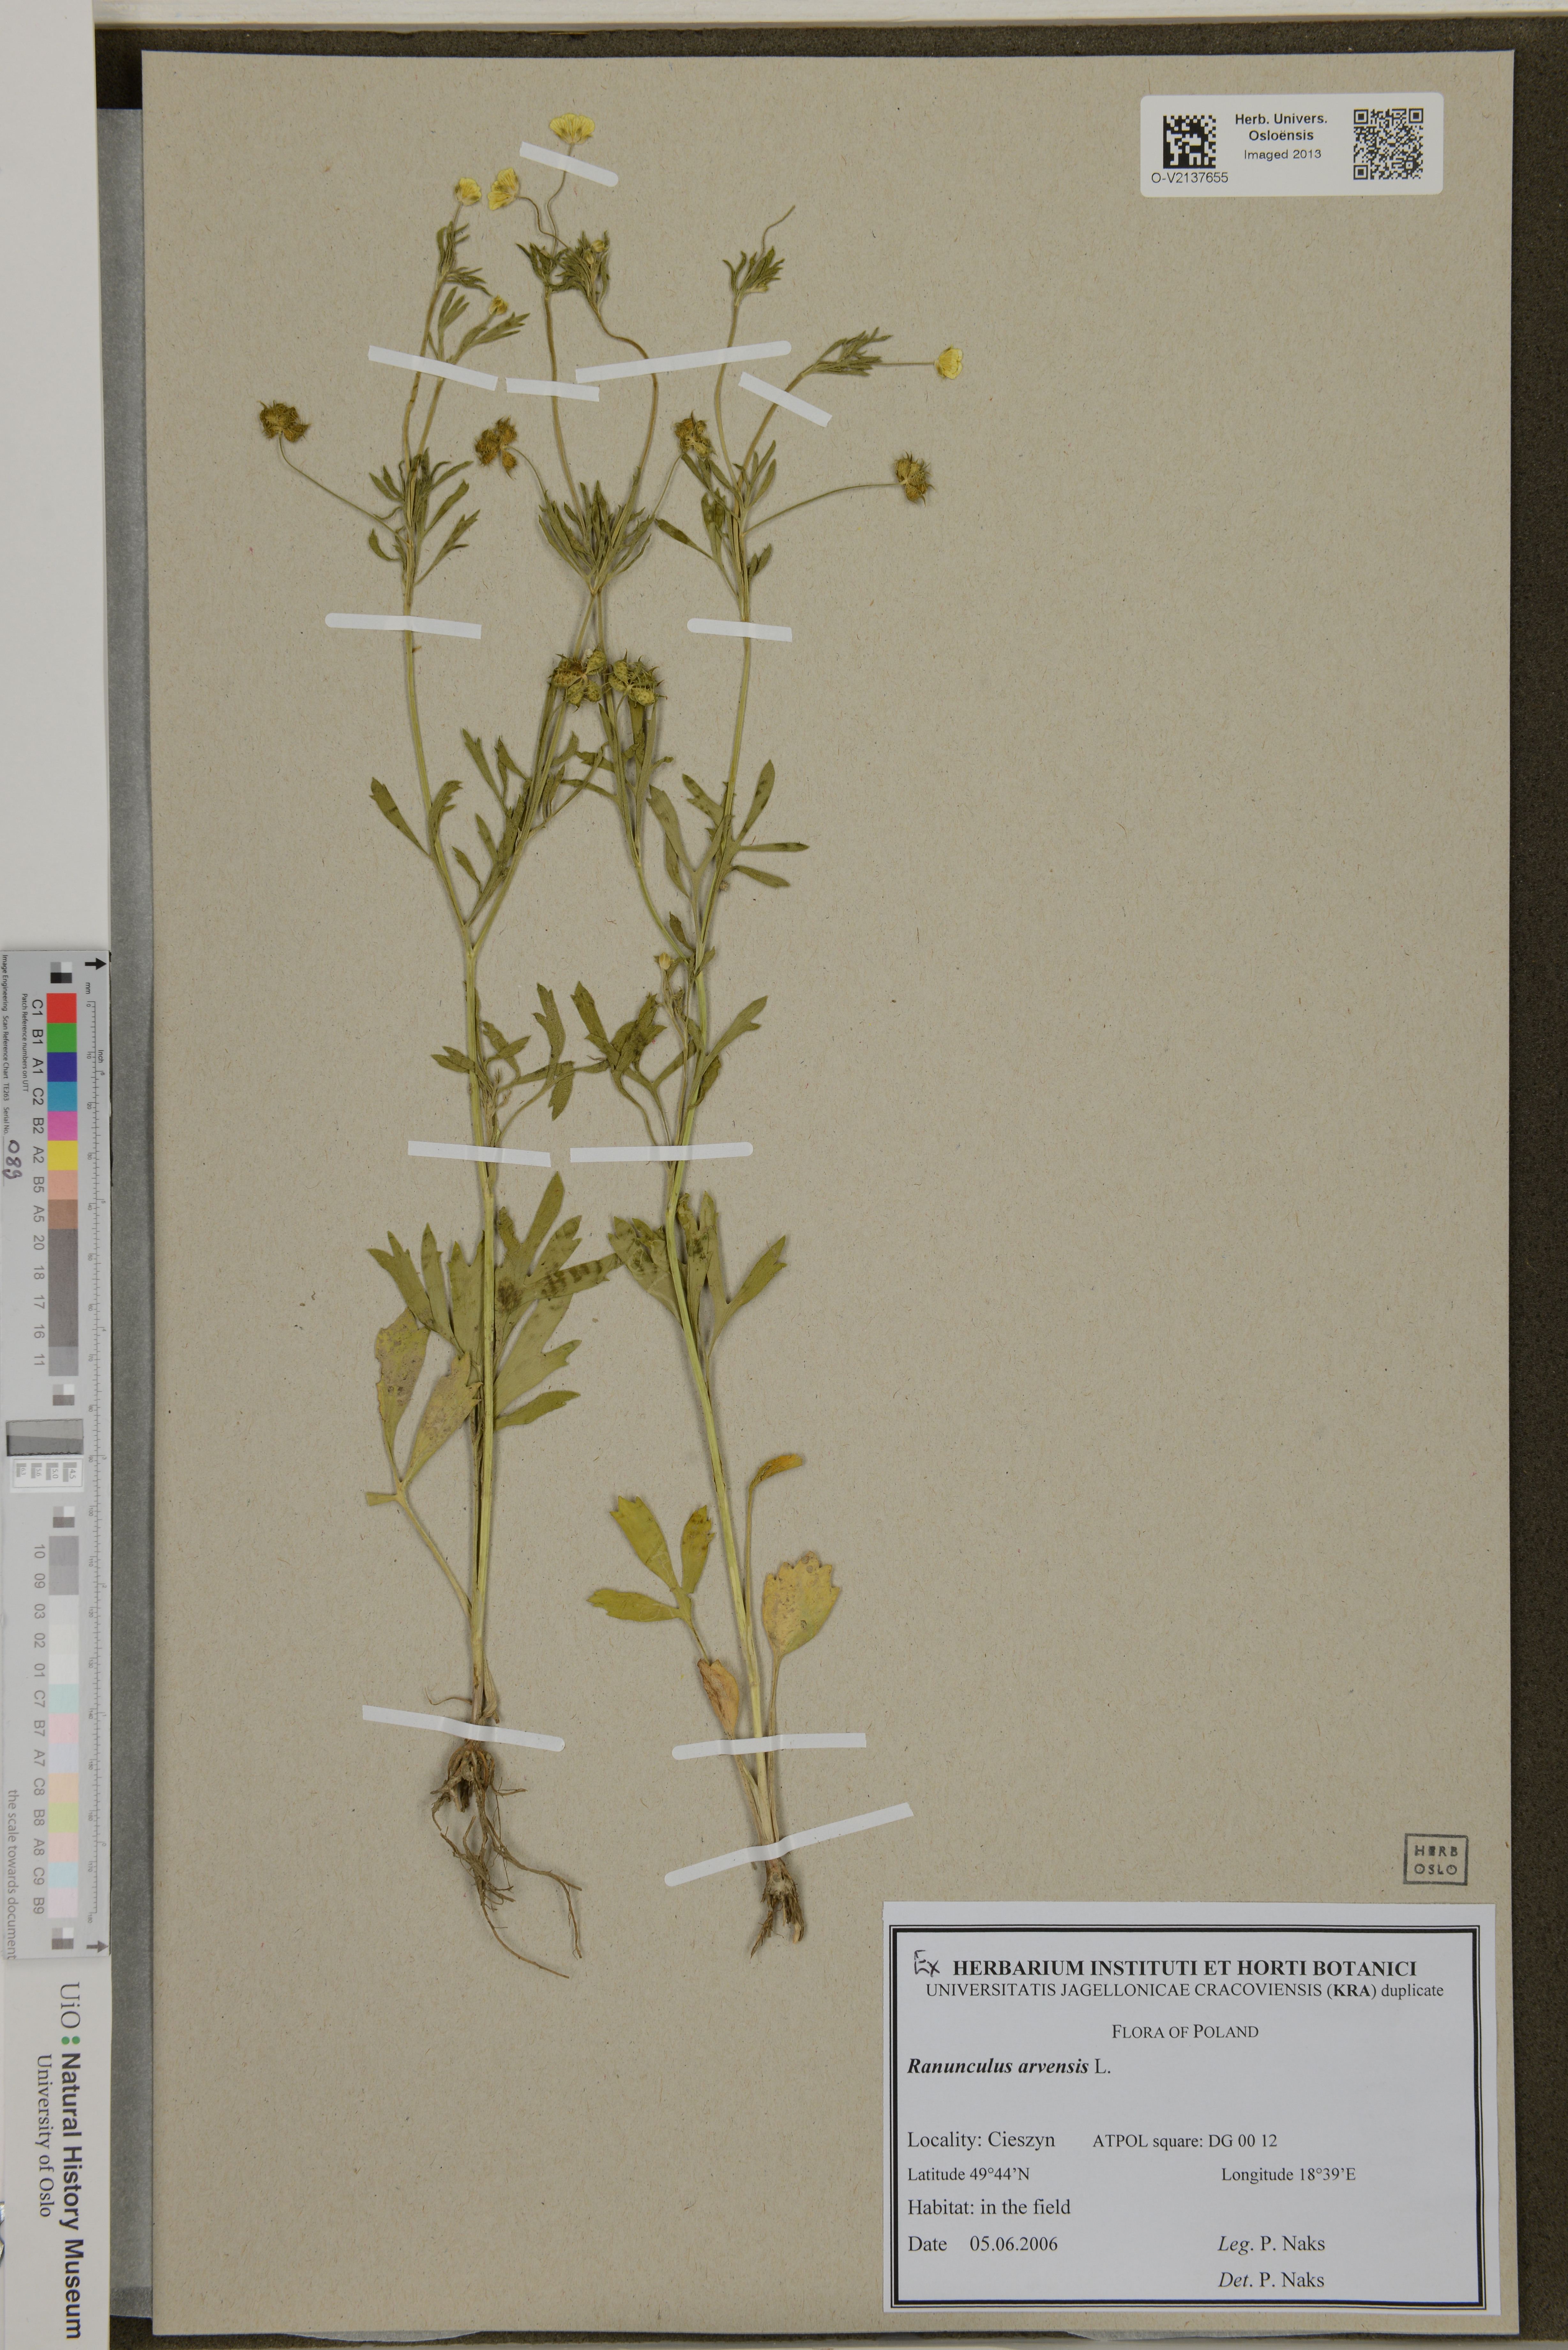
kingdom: Plantae
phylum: Tracheophyta
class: Magnoliopsida
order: Ranunculales
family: Ranunculaceae
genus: Ranunculus
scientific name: Ranunculus arvensis
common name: Corn buttercup
